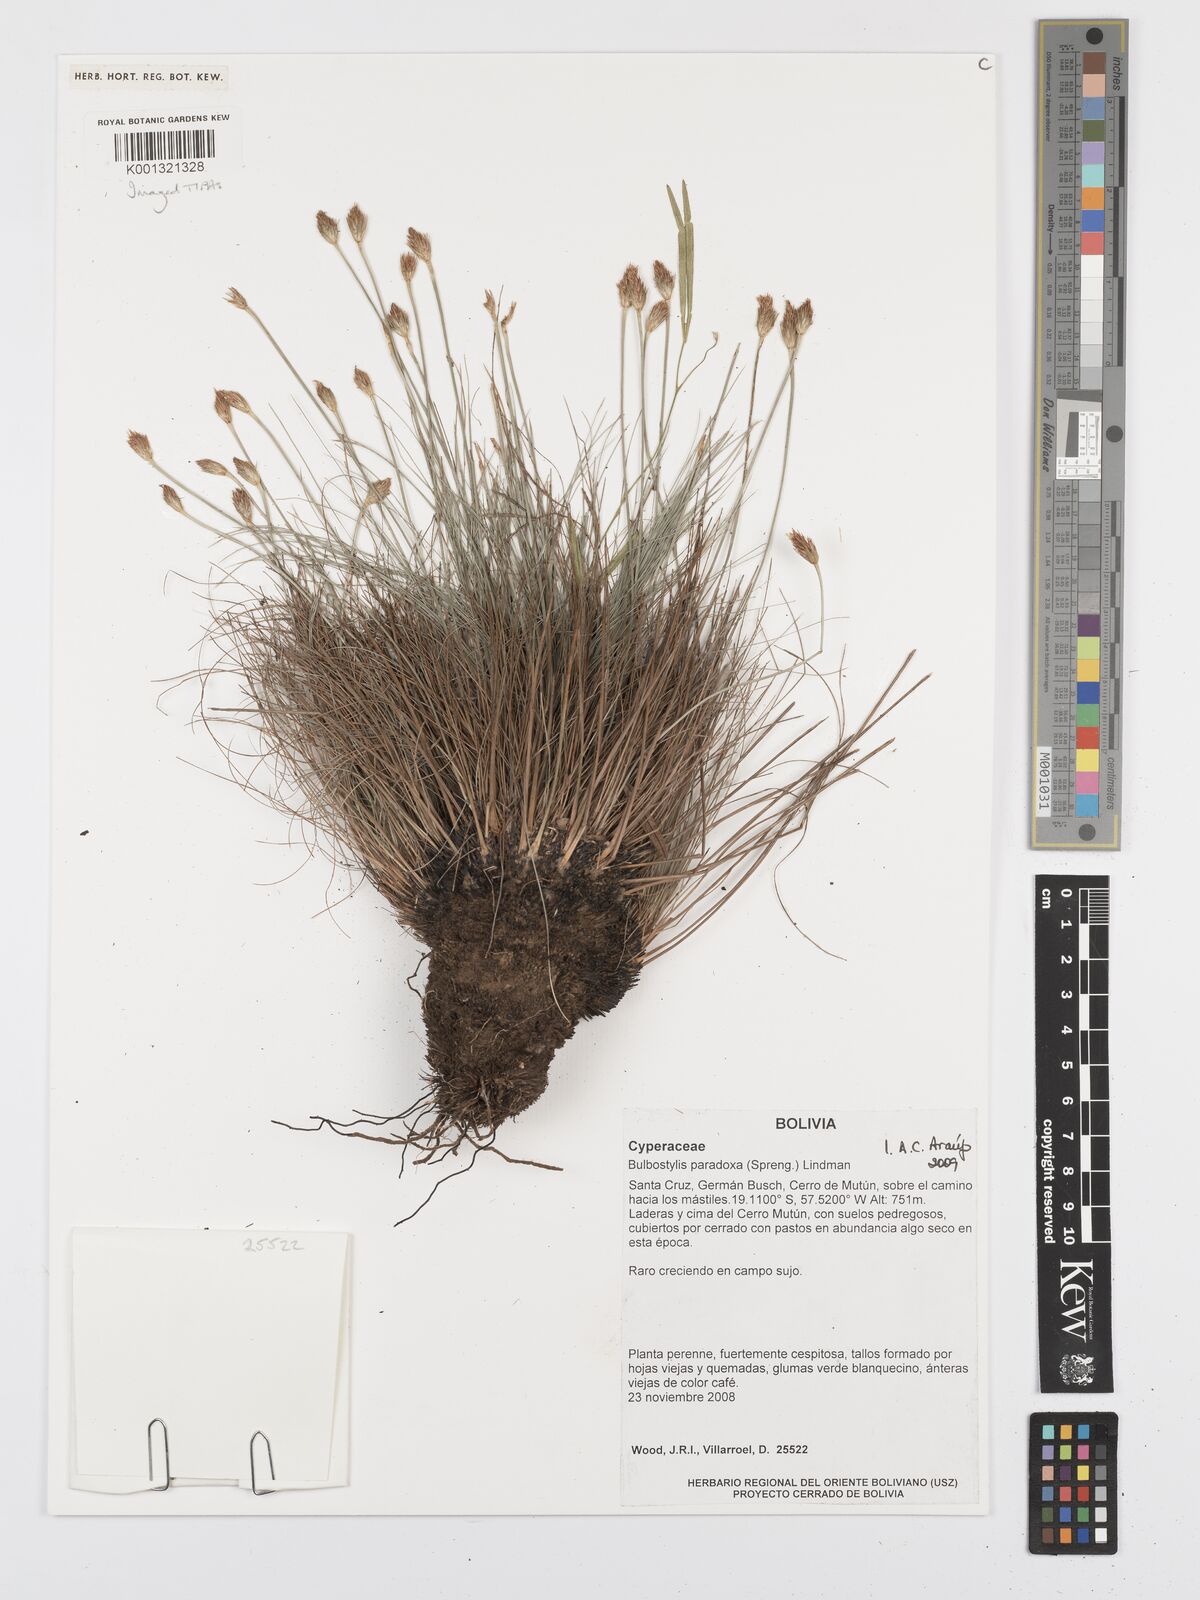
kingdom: Plantae
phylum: Tracheophyta
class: Liliopsida
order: Poales
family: Cyperaceae
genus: Bulbostylis
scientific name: Bulbostylis
